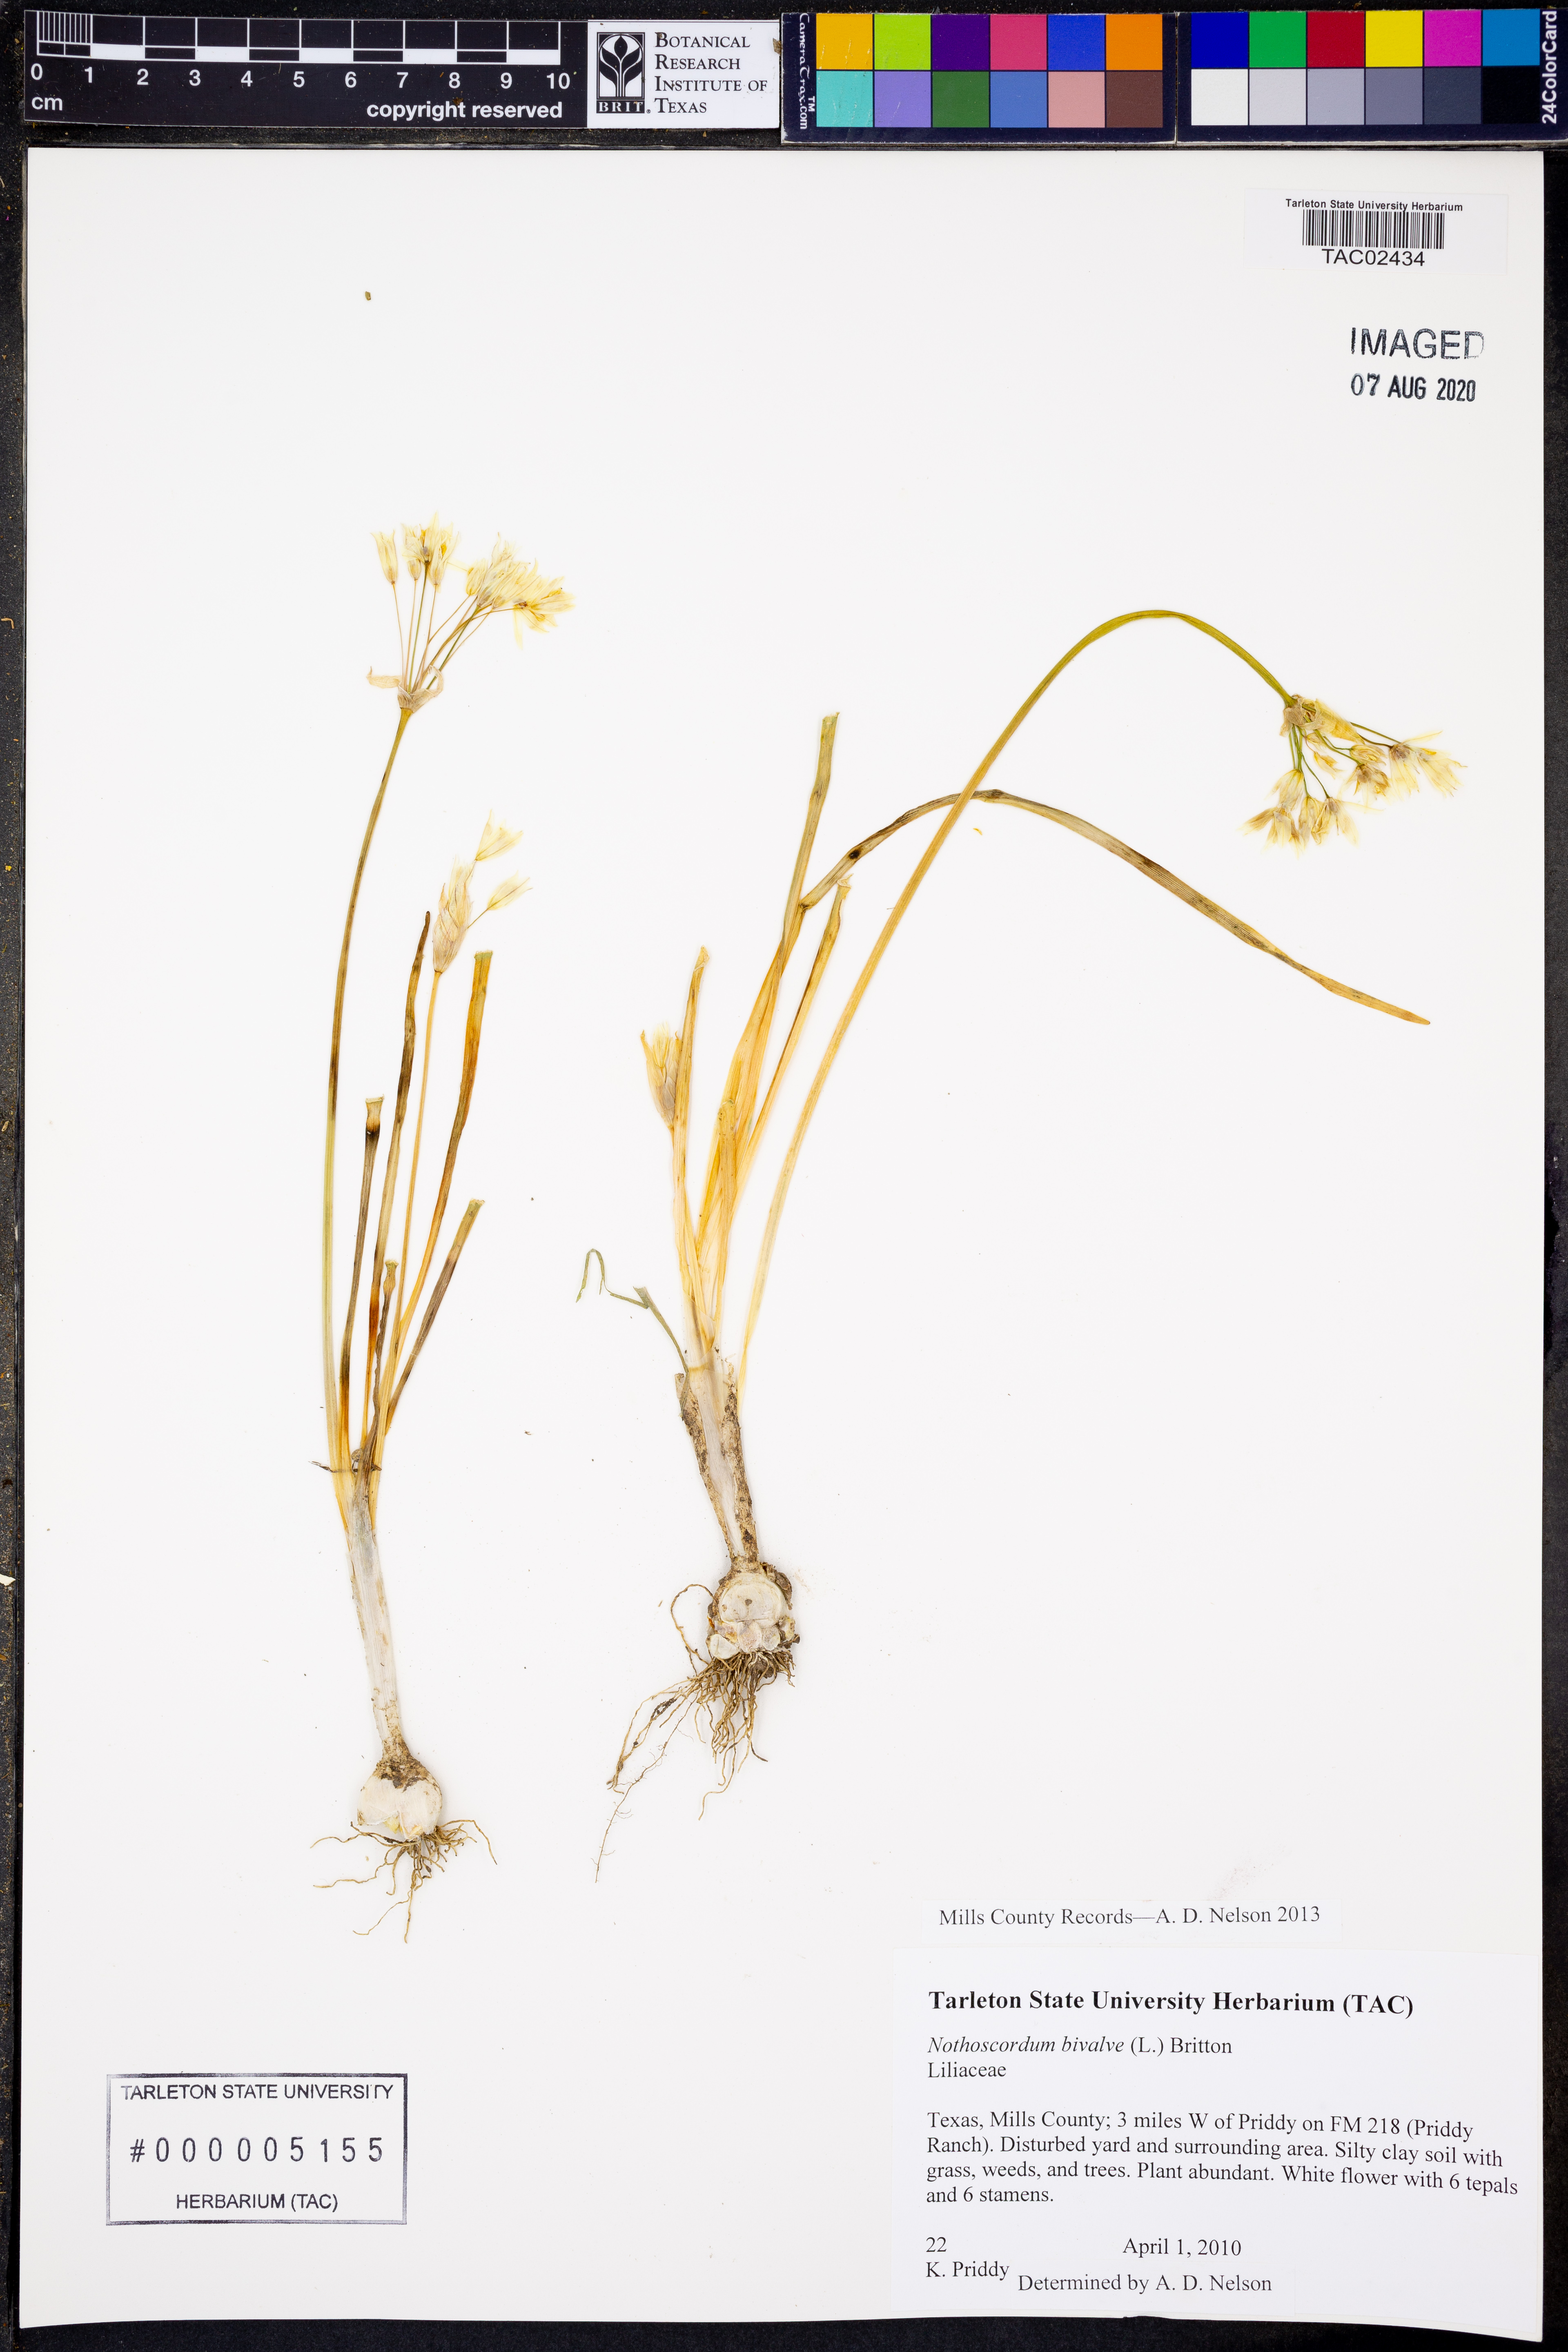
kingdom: Plantae
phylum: Tracheophyta
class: Liliopsida
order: Asparagales
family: Amaryllidaceae
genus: Nothoscordum
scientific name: Nothoscordum bivalve
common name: Crow-poison
